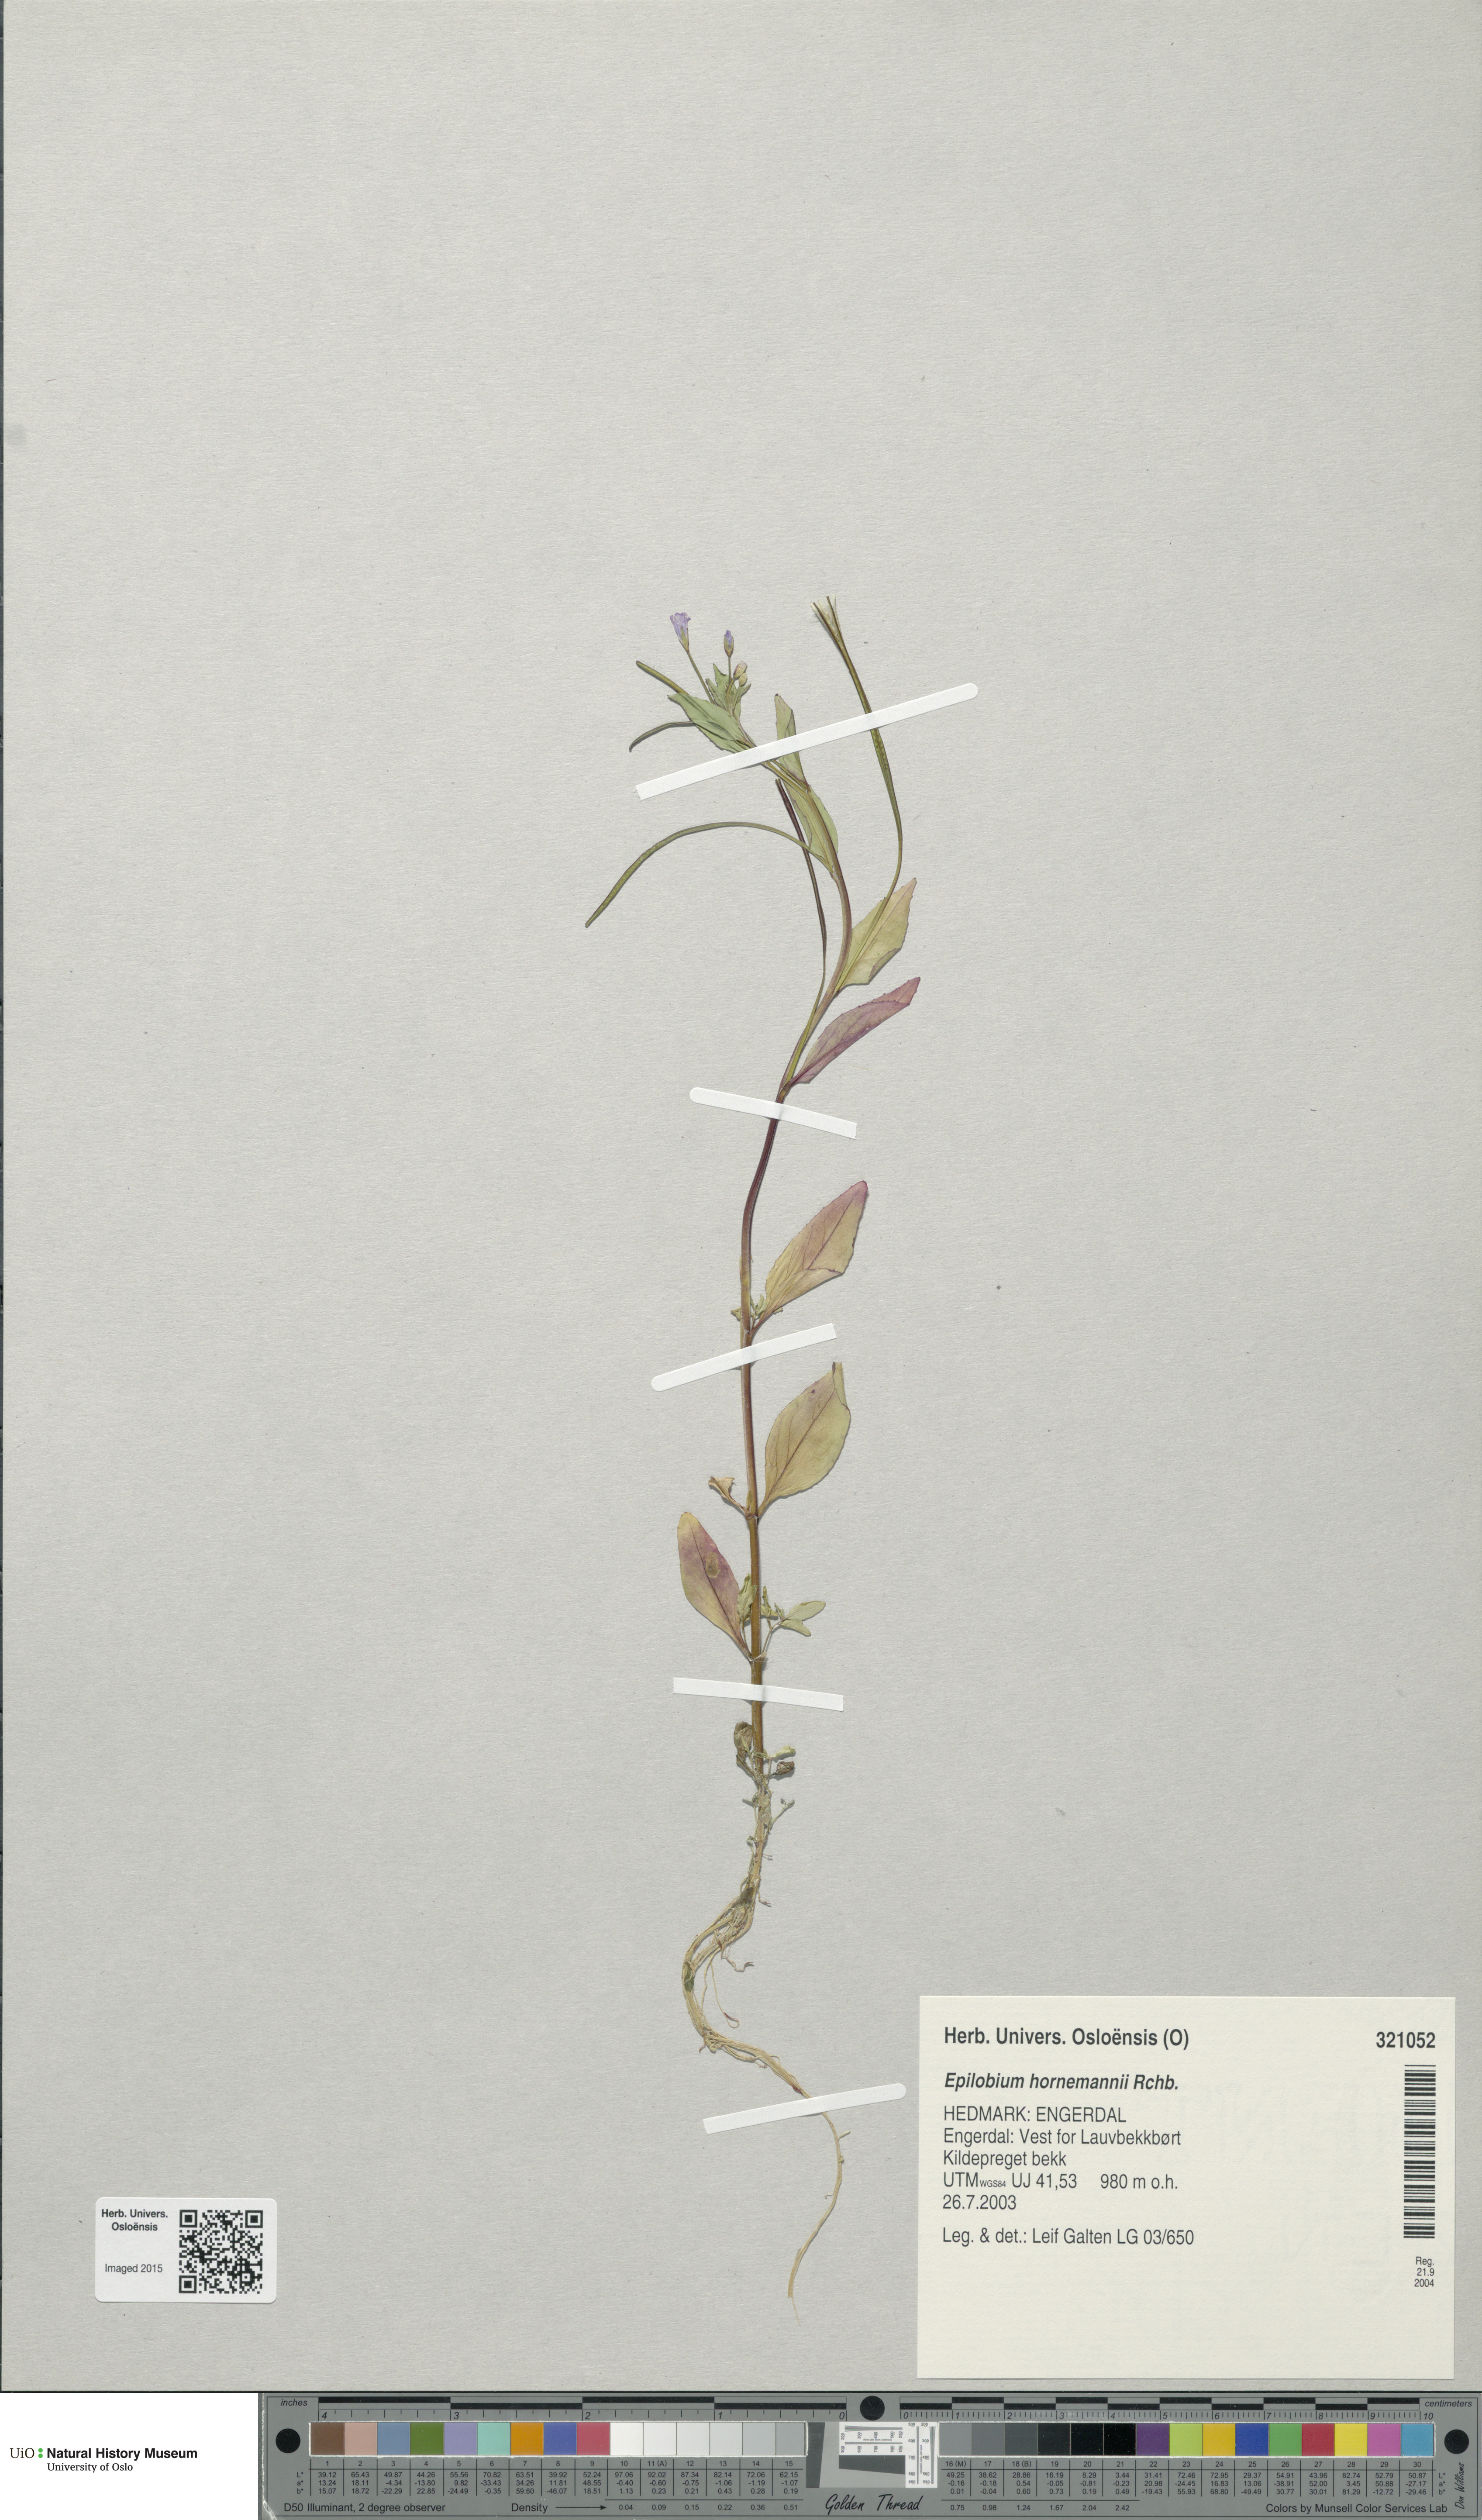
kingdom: Plantae
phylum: Tracheophyta
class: Magnoliopsida
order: Myrtales
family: Onagraceae
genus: Epilobium
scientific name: Epilobium hornemannii
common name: Hornemann's willowherb
